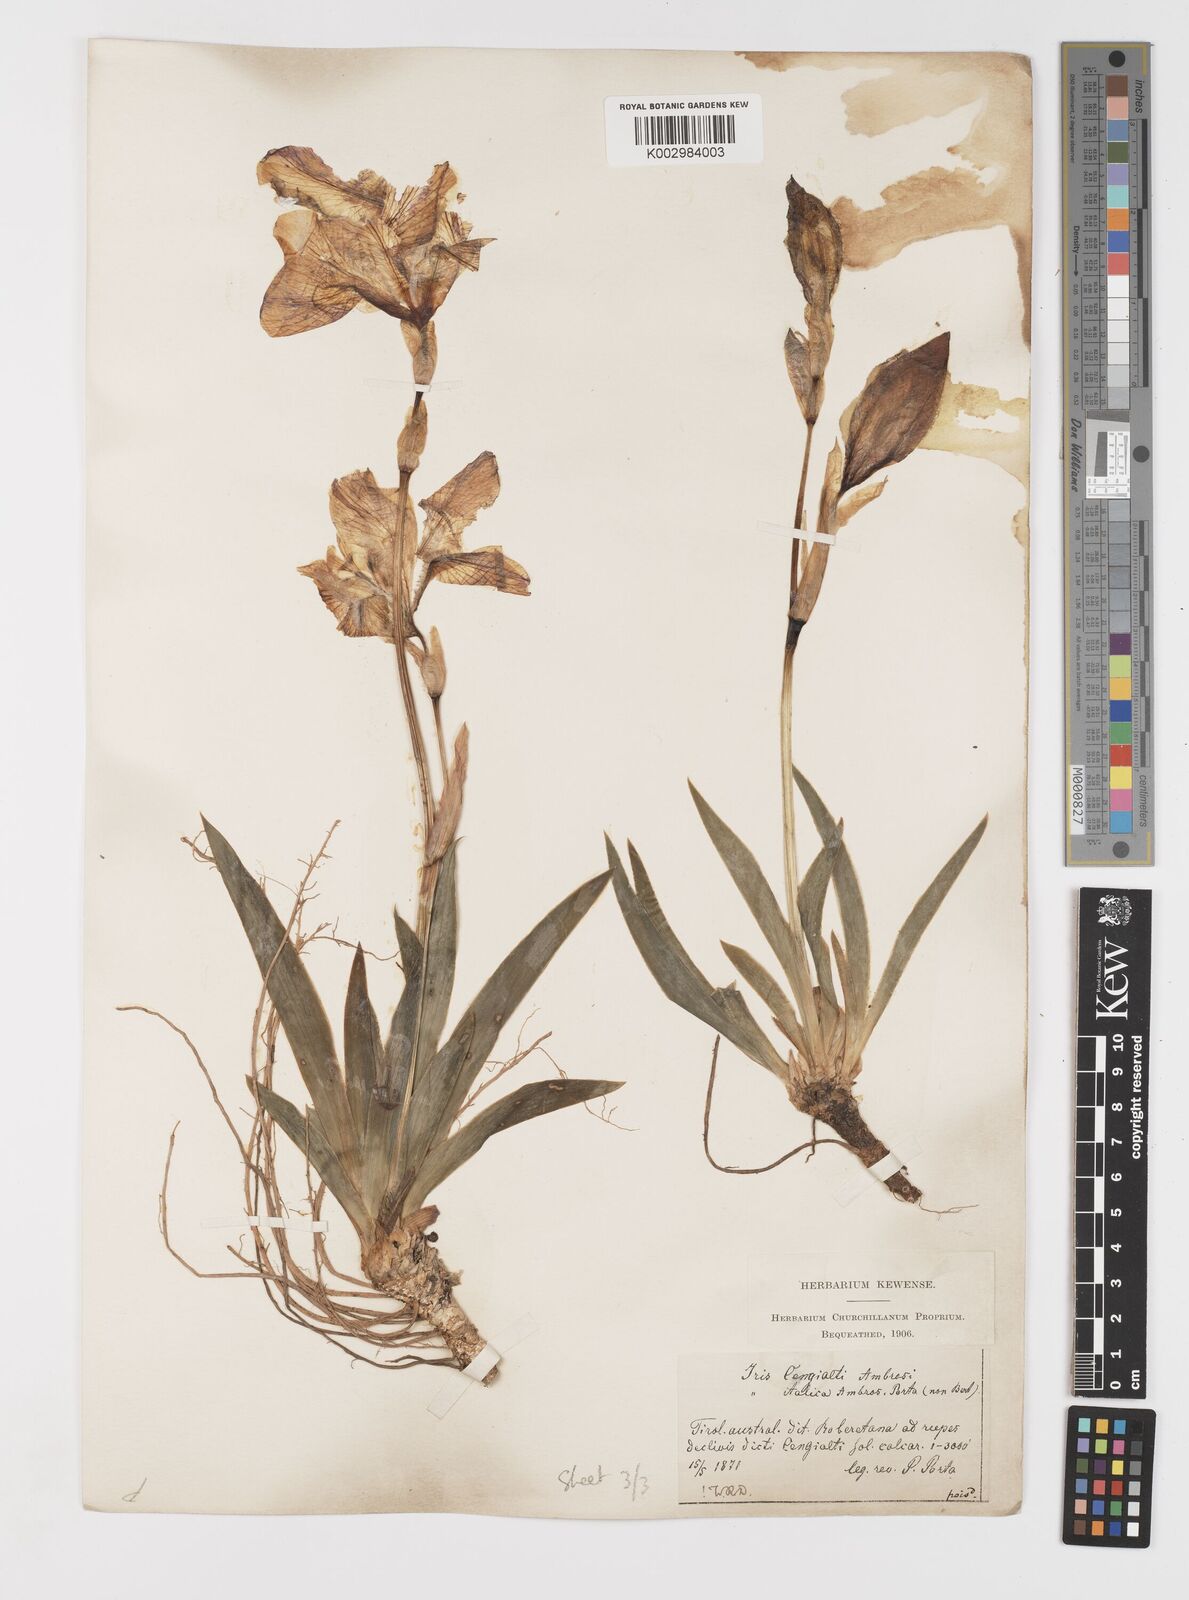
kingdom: Plantae
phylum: Tracheophyta
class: Liliopsida
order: Asparagales
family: Iridaceae
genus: Iris
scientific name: Iris pallida
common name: Sweet iris
